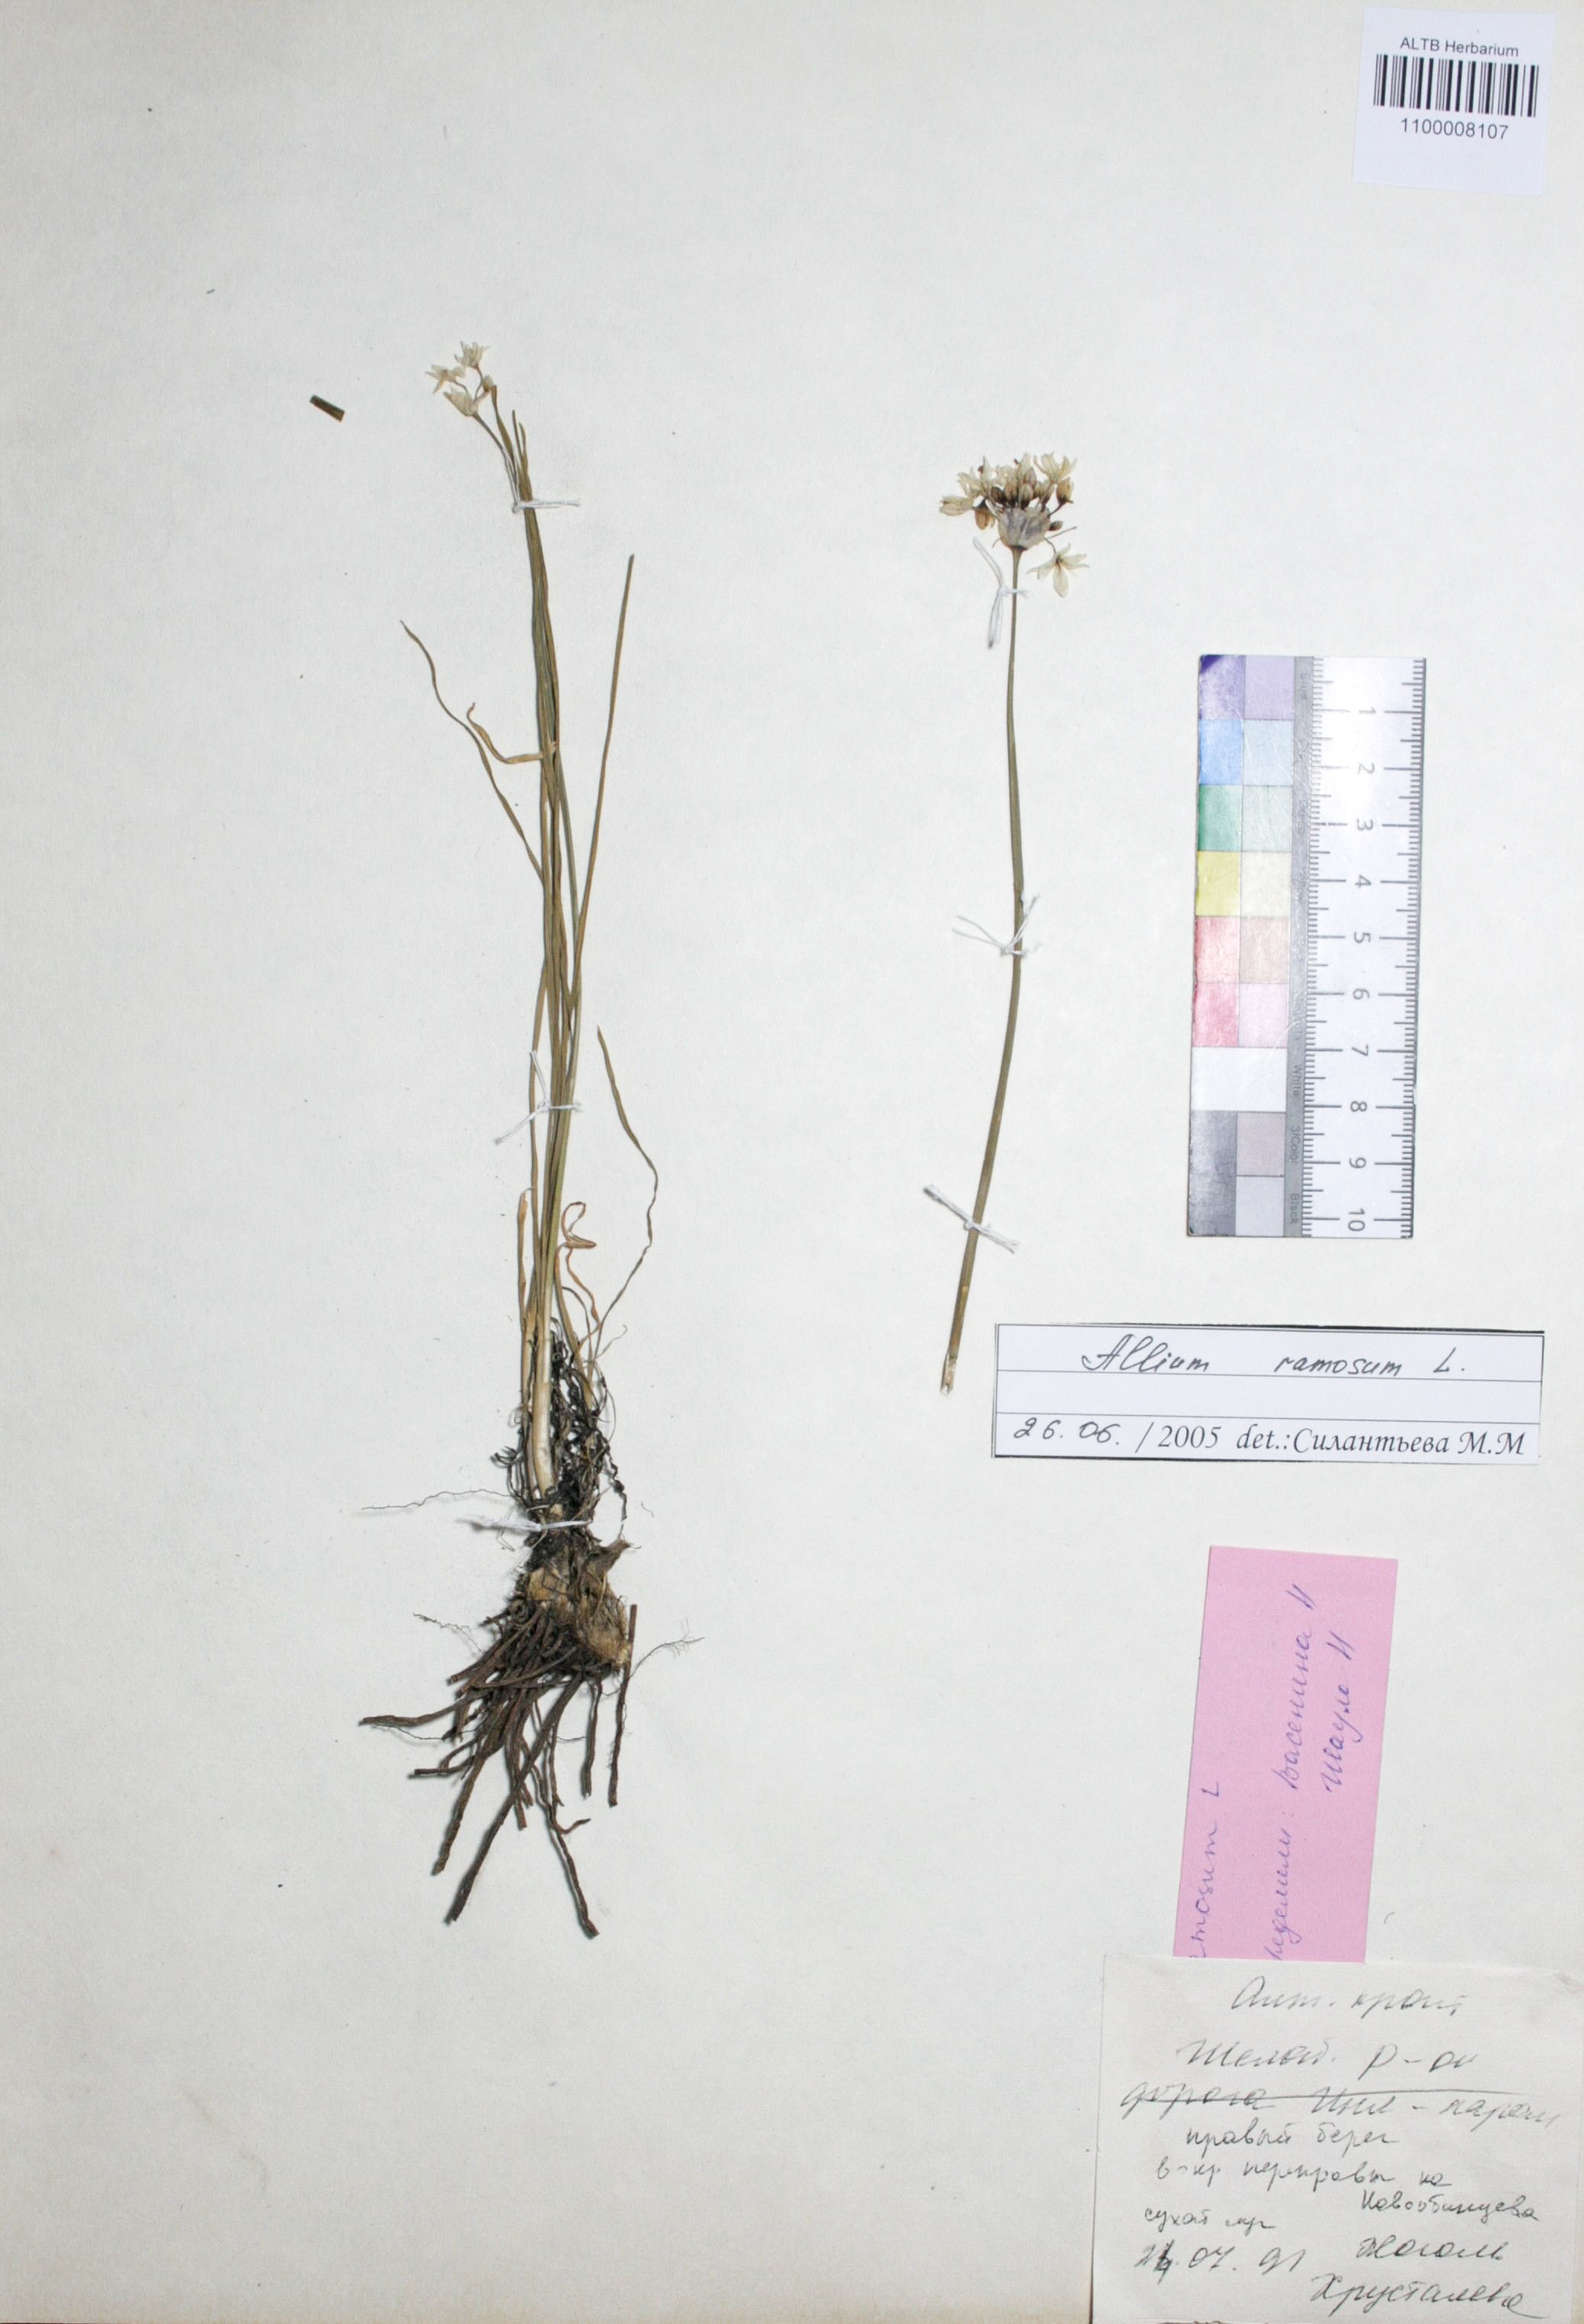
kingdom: Plantae
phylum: Tracheophyta
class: Liliopsida
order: Asparagales
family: Amaryllidaceae
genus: Allium
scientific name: Allium ramosum
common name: Fragrant garlic
